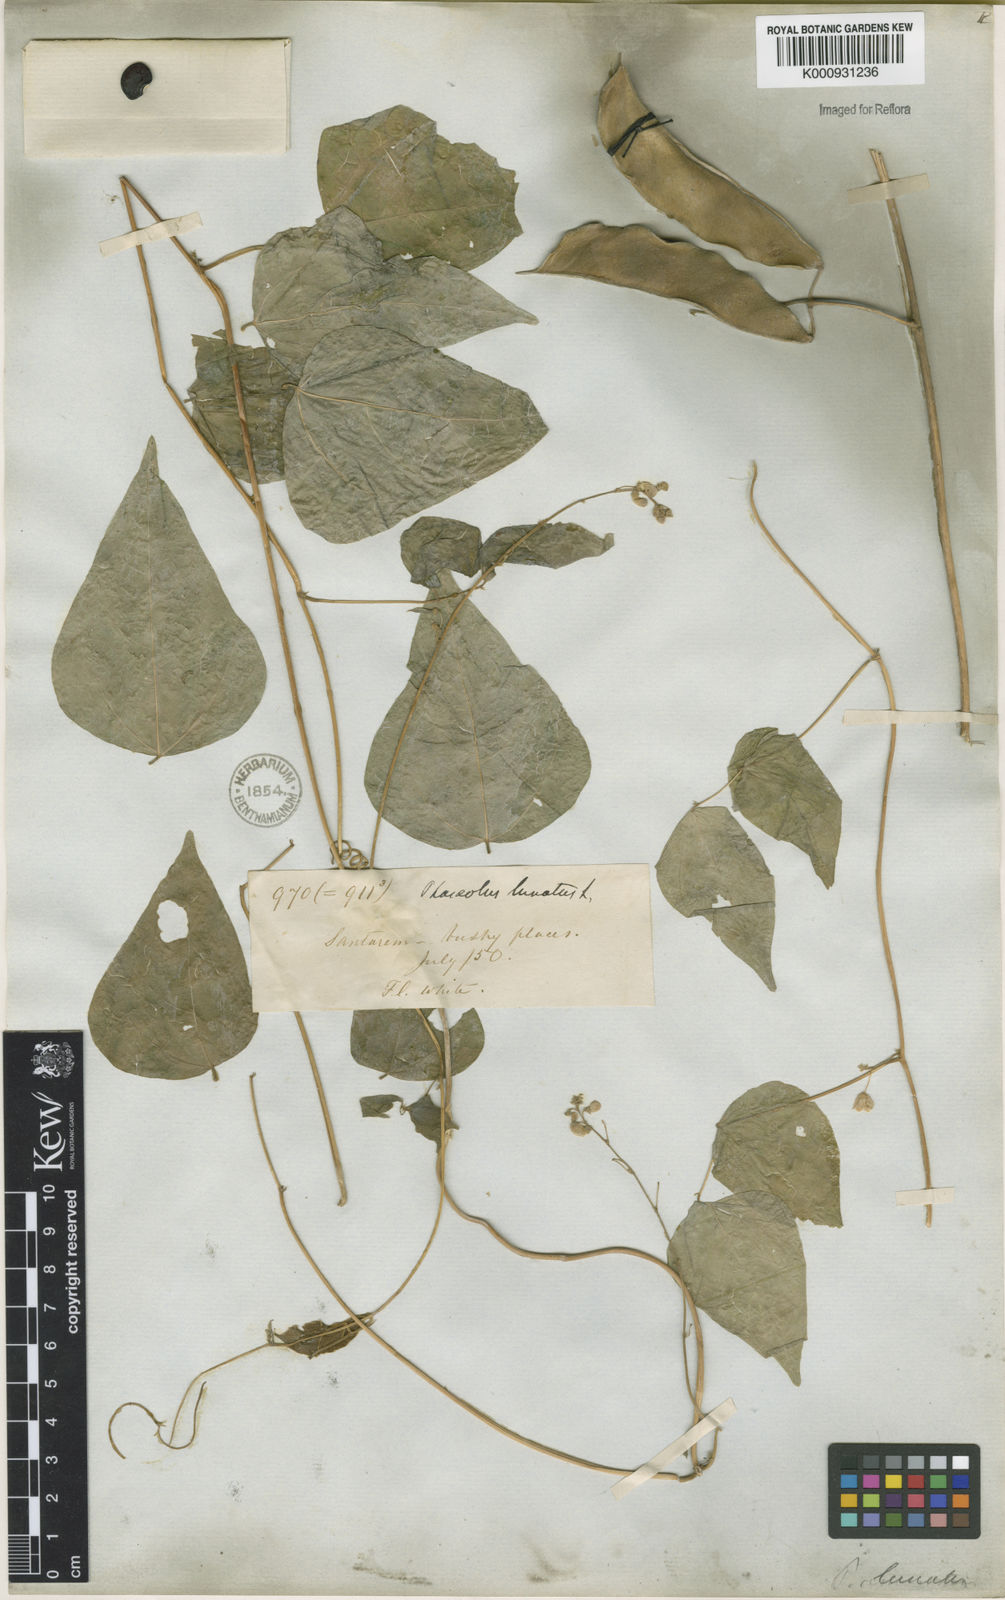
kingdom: Plantae
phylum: Tracheophyta
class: Magnoliopsida
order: Fabales
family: Fabaceae
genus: Phaseolus
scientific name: Phaseolus lunatus
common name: Sieva bean
